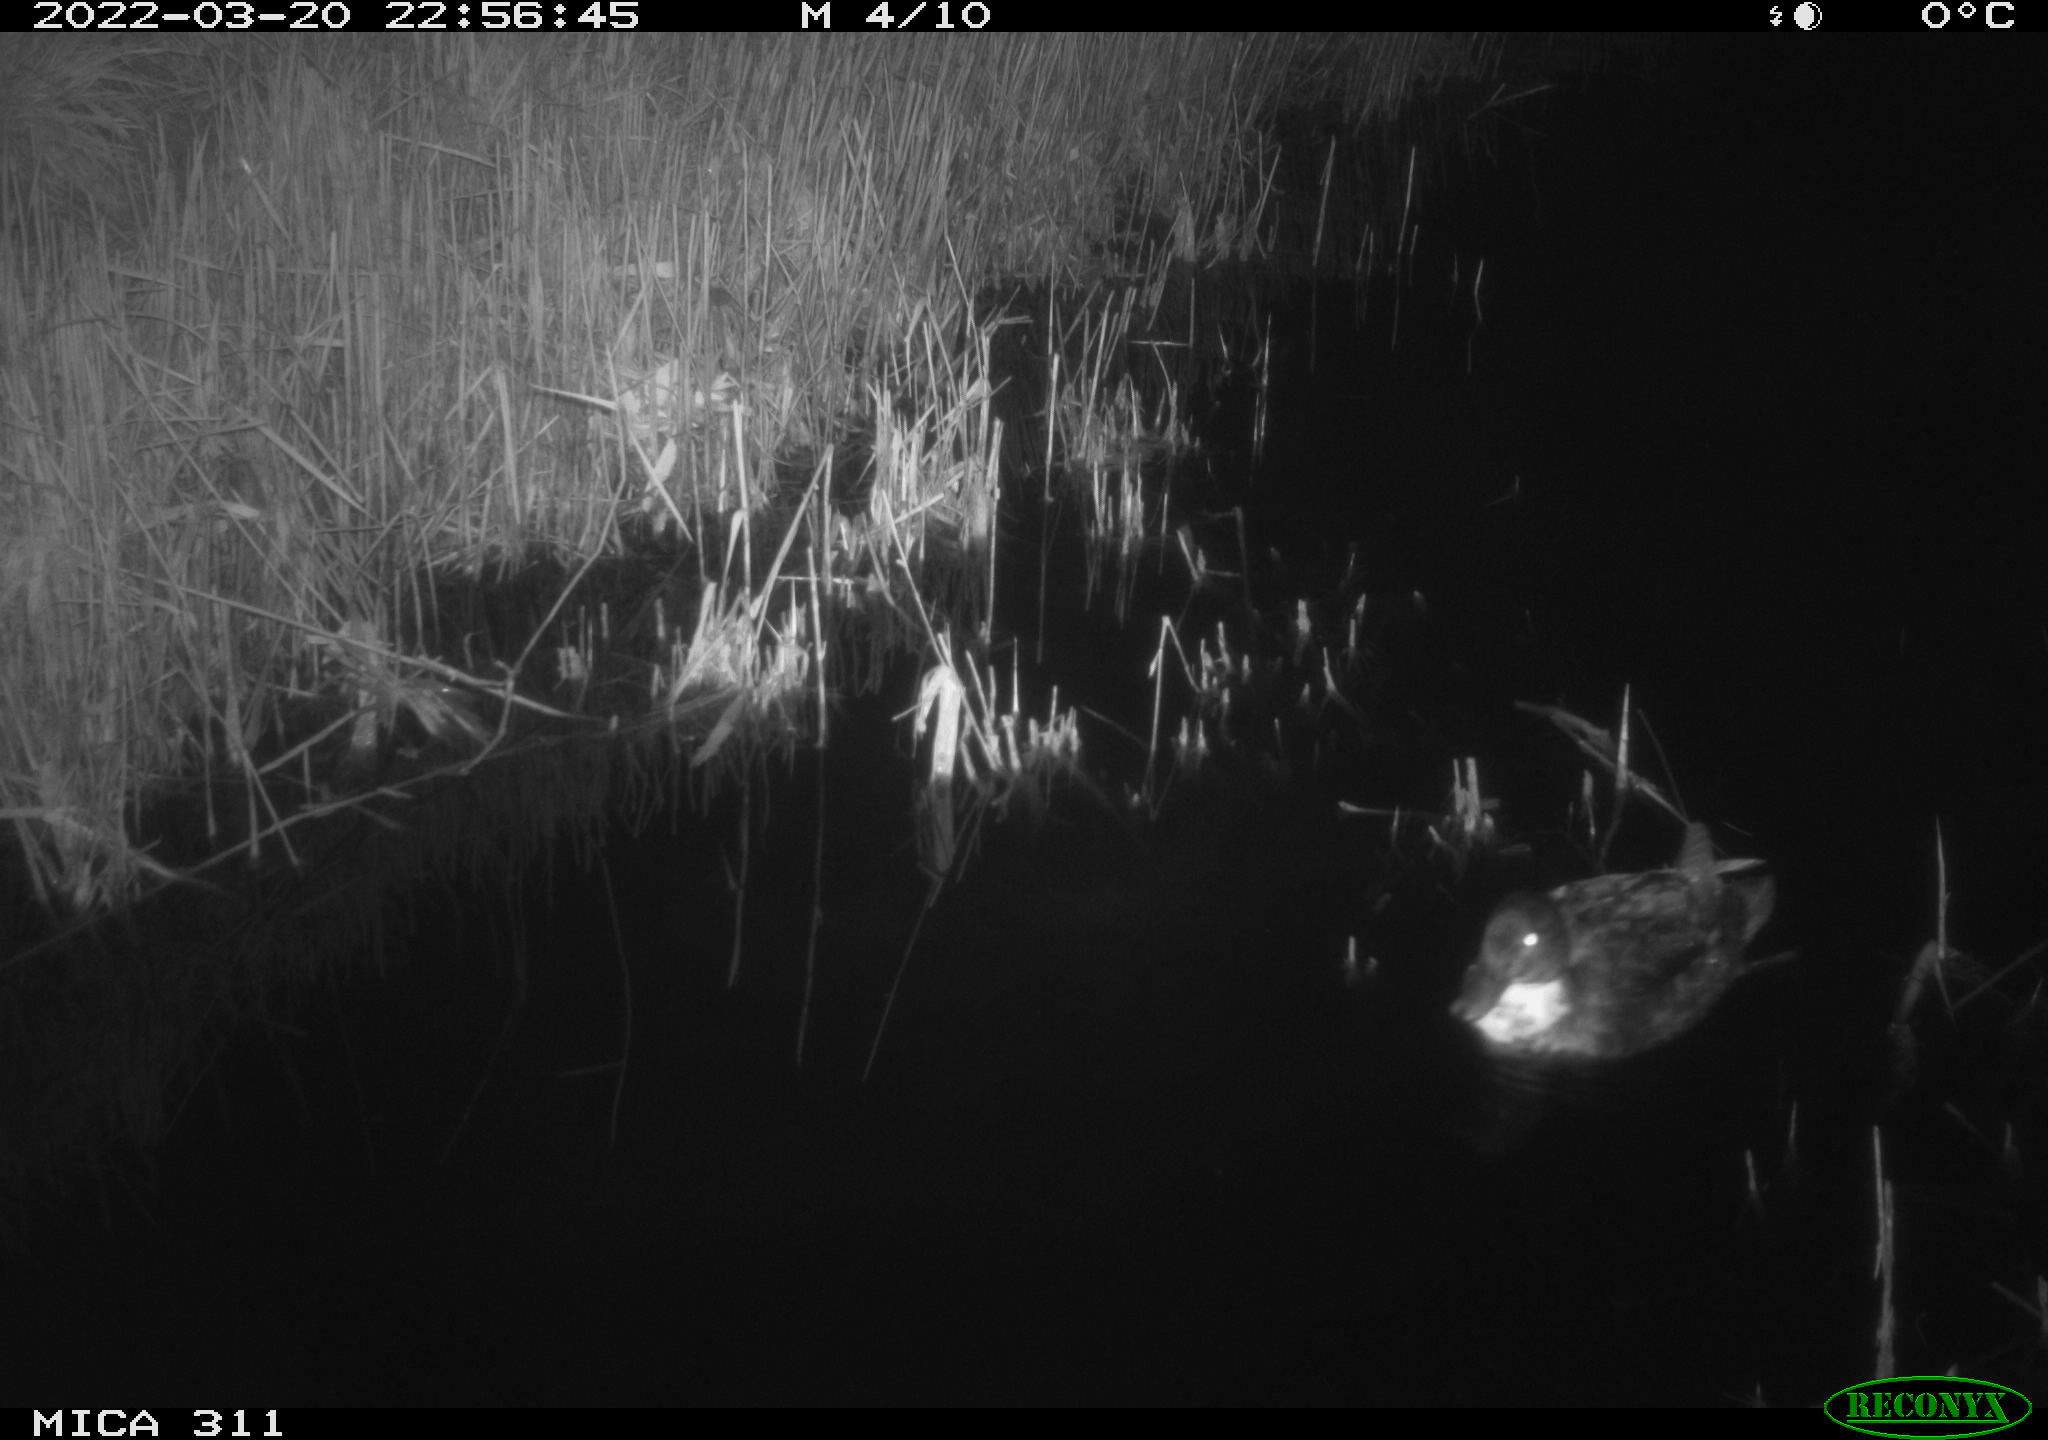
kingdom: Animalia
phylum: Chordata
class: Aves
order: Anseriformes
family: Anatidae
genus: Anas
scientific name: Anas platyrhynchos
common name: Mallard
